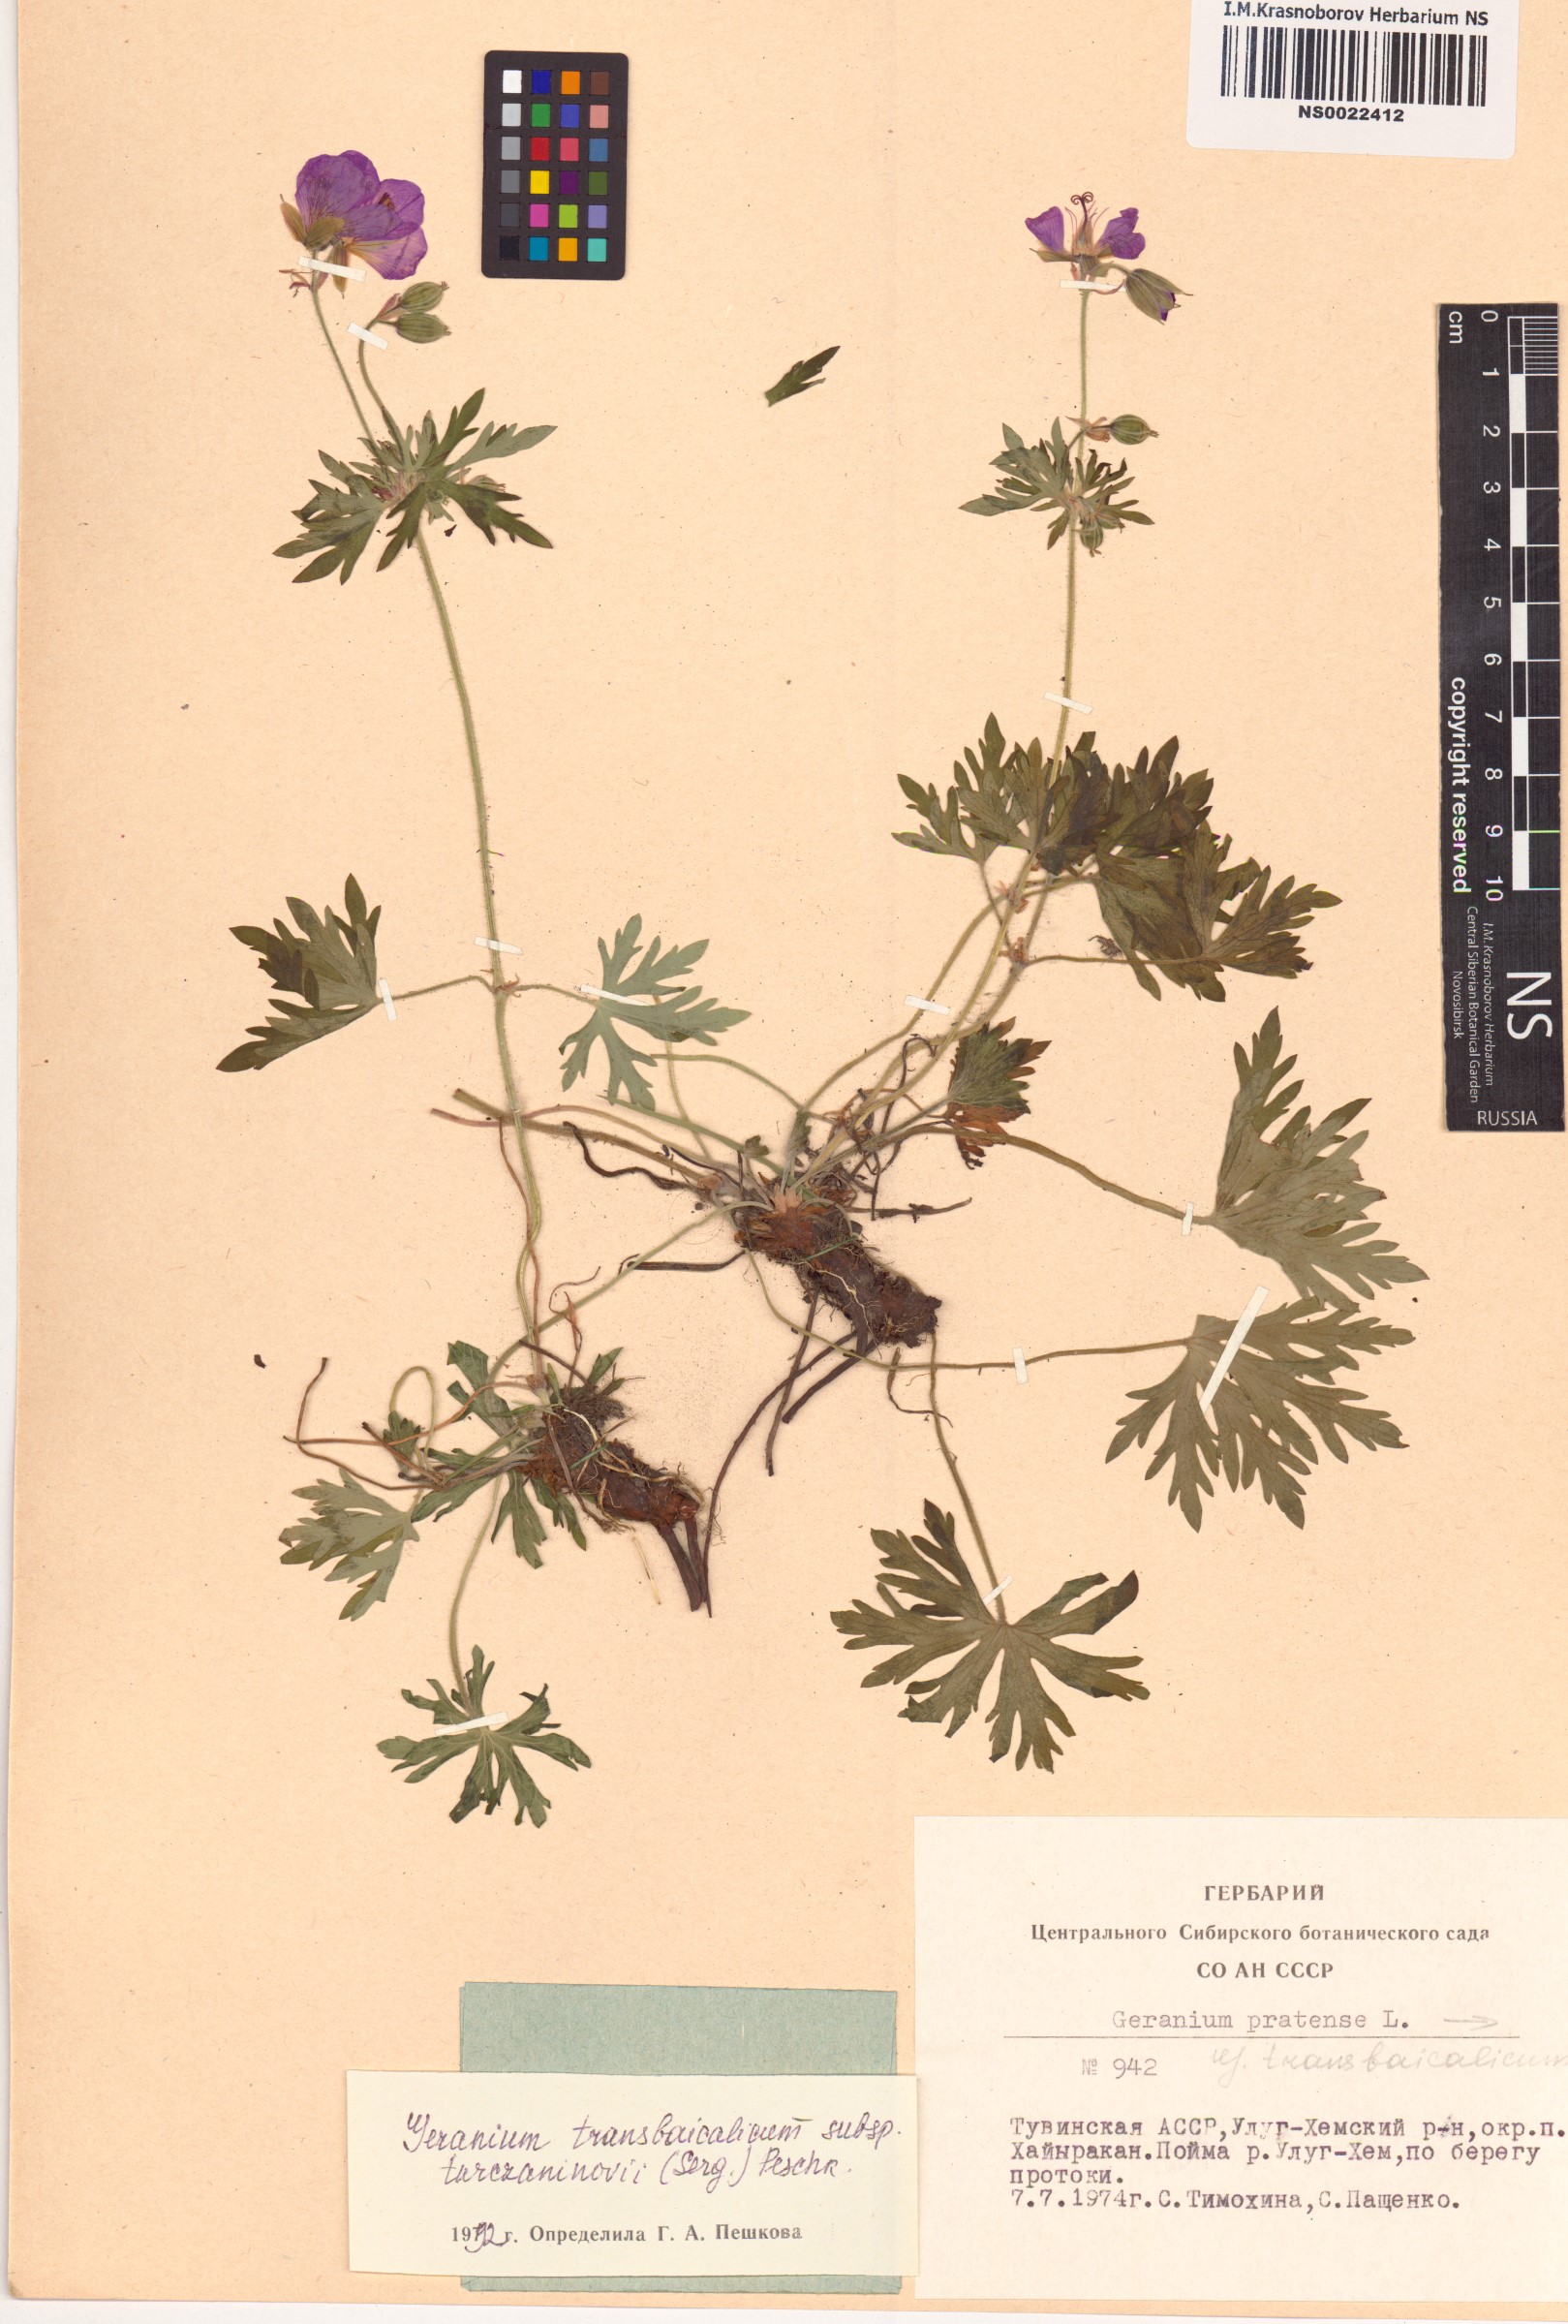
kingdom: Plantae
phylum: Tracheophyta
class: Magnoliopsida
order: Geraniales
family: Geraniaceae
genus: Geranium
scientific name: Geranium pratense
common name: Meadow crane's-bill
